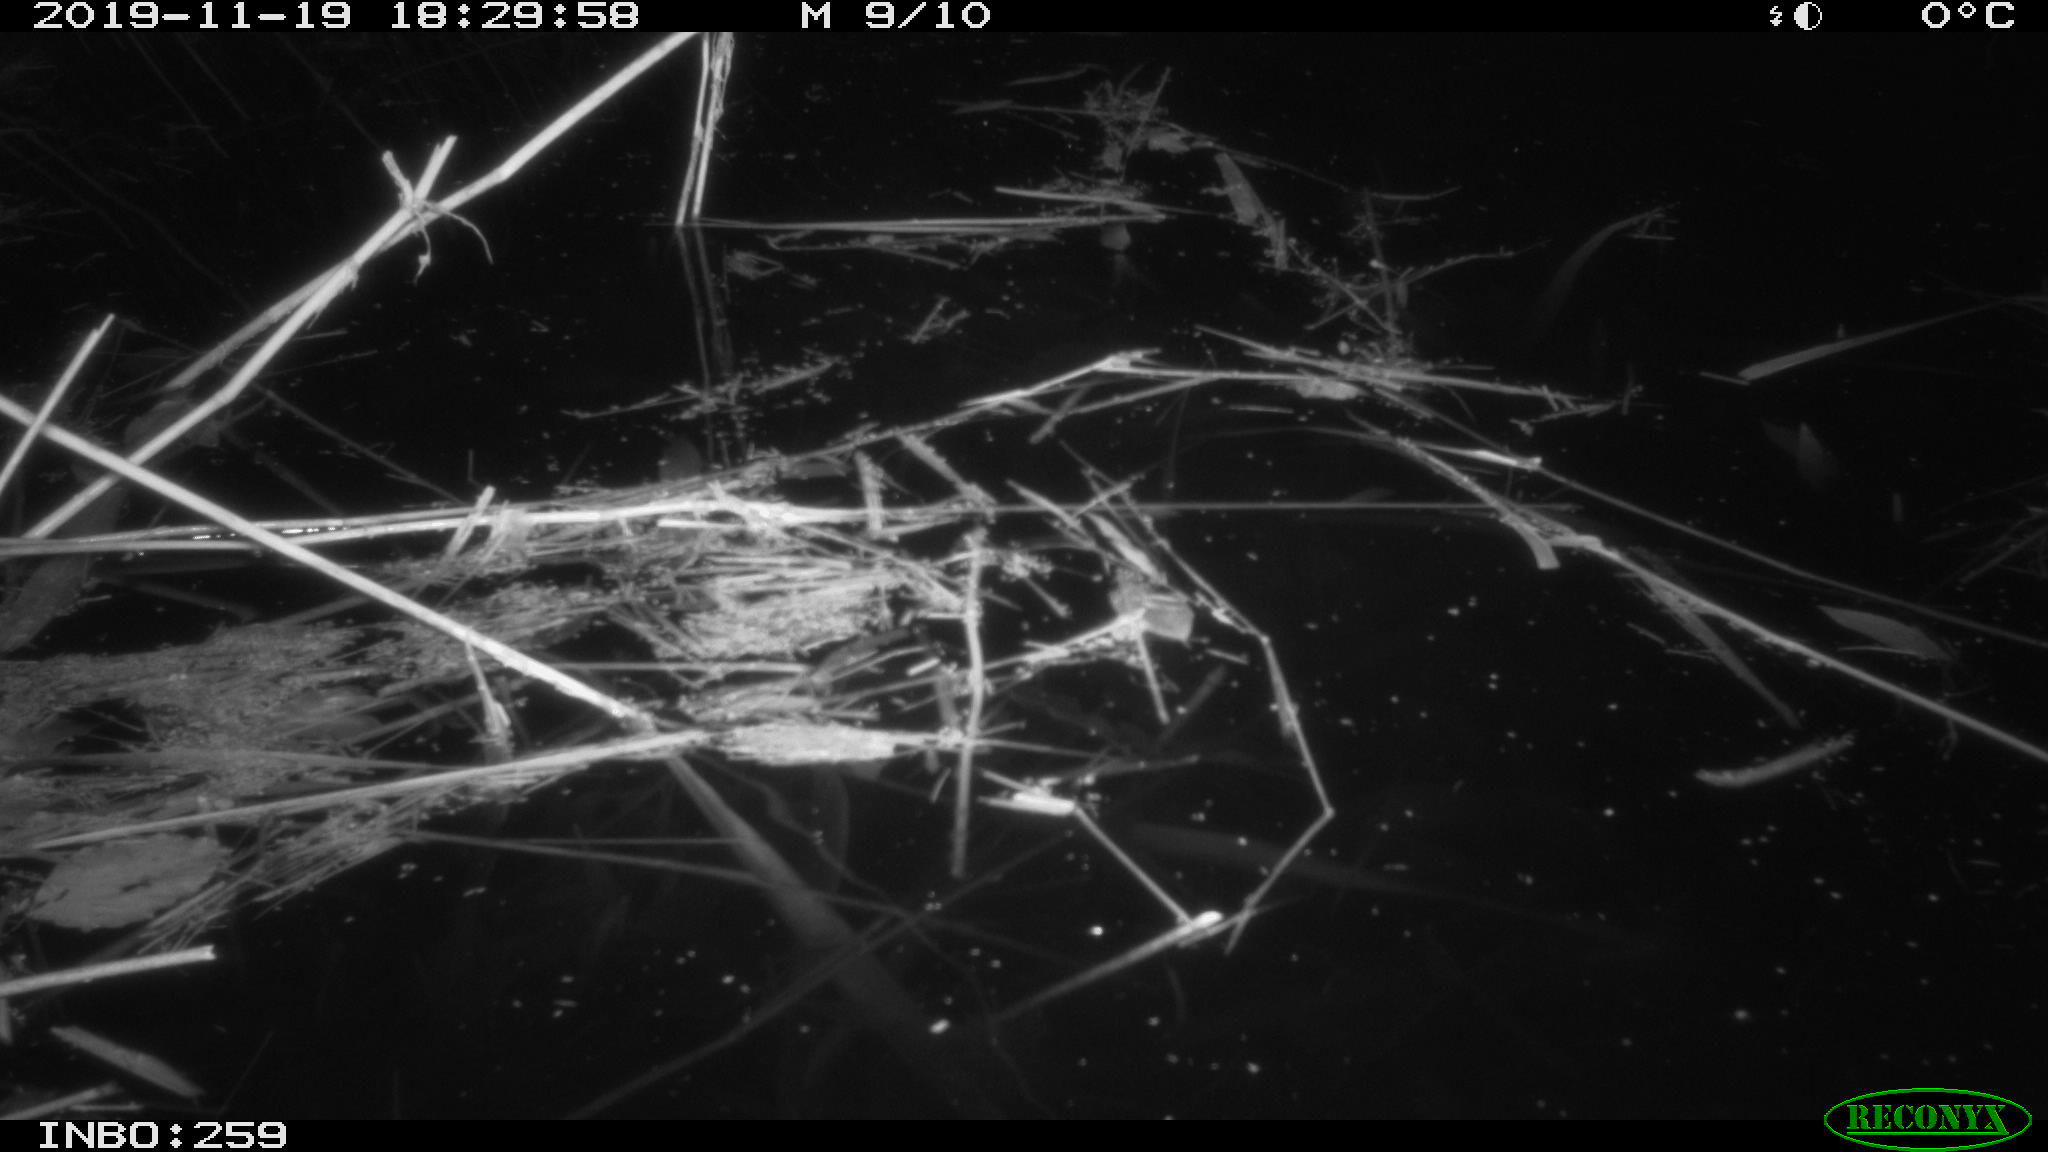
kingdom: Animalia
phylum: Chordata
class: Mammalia
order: Rodentia
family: Muridae
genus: Rattus
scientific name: Rattus norvegicus
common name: Brown rat
